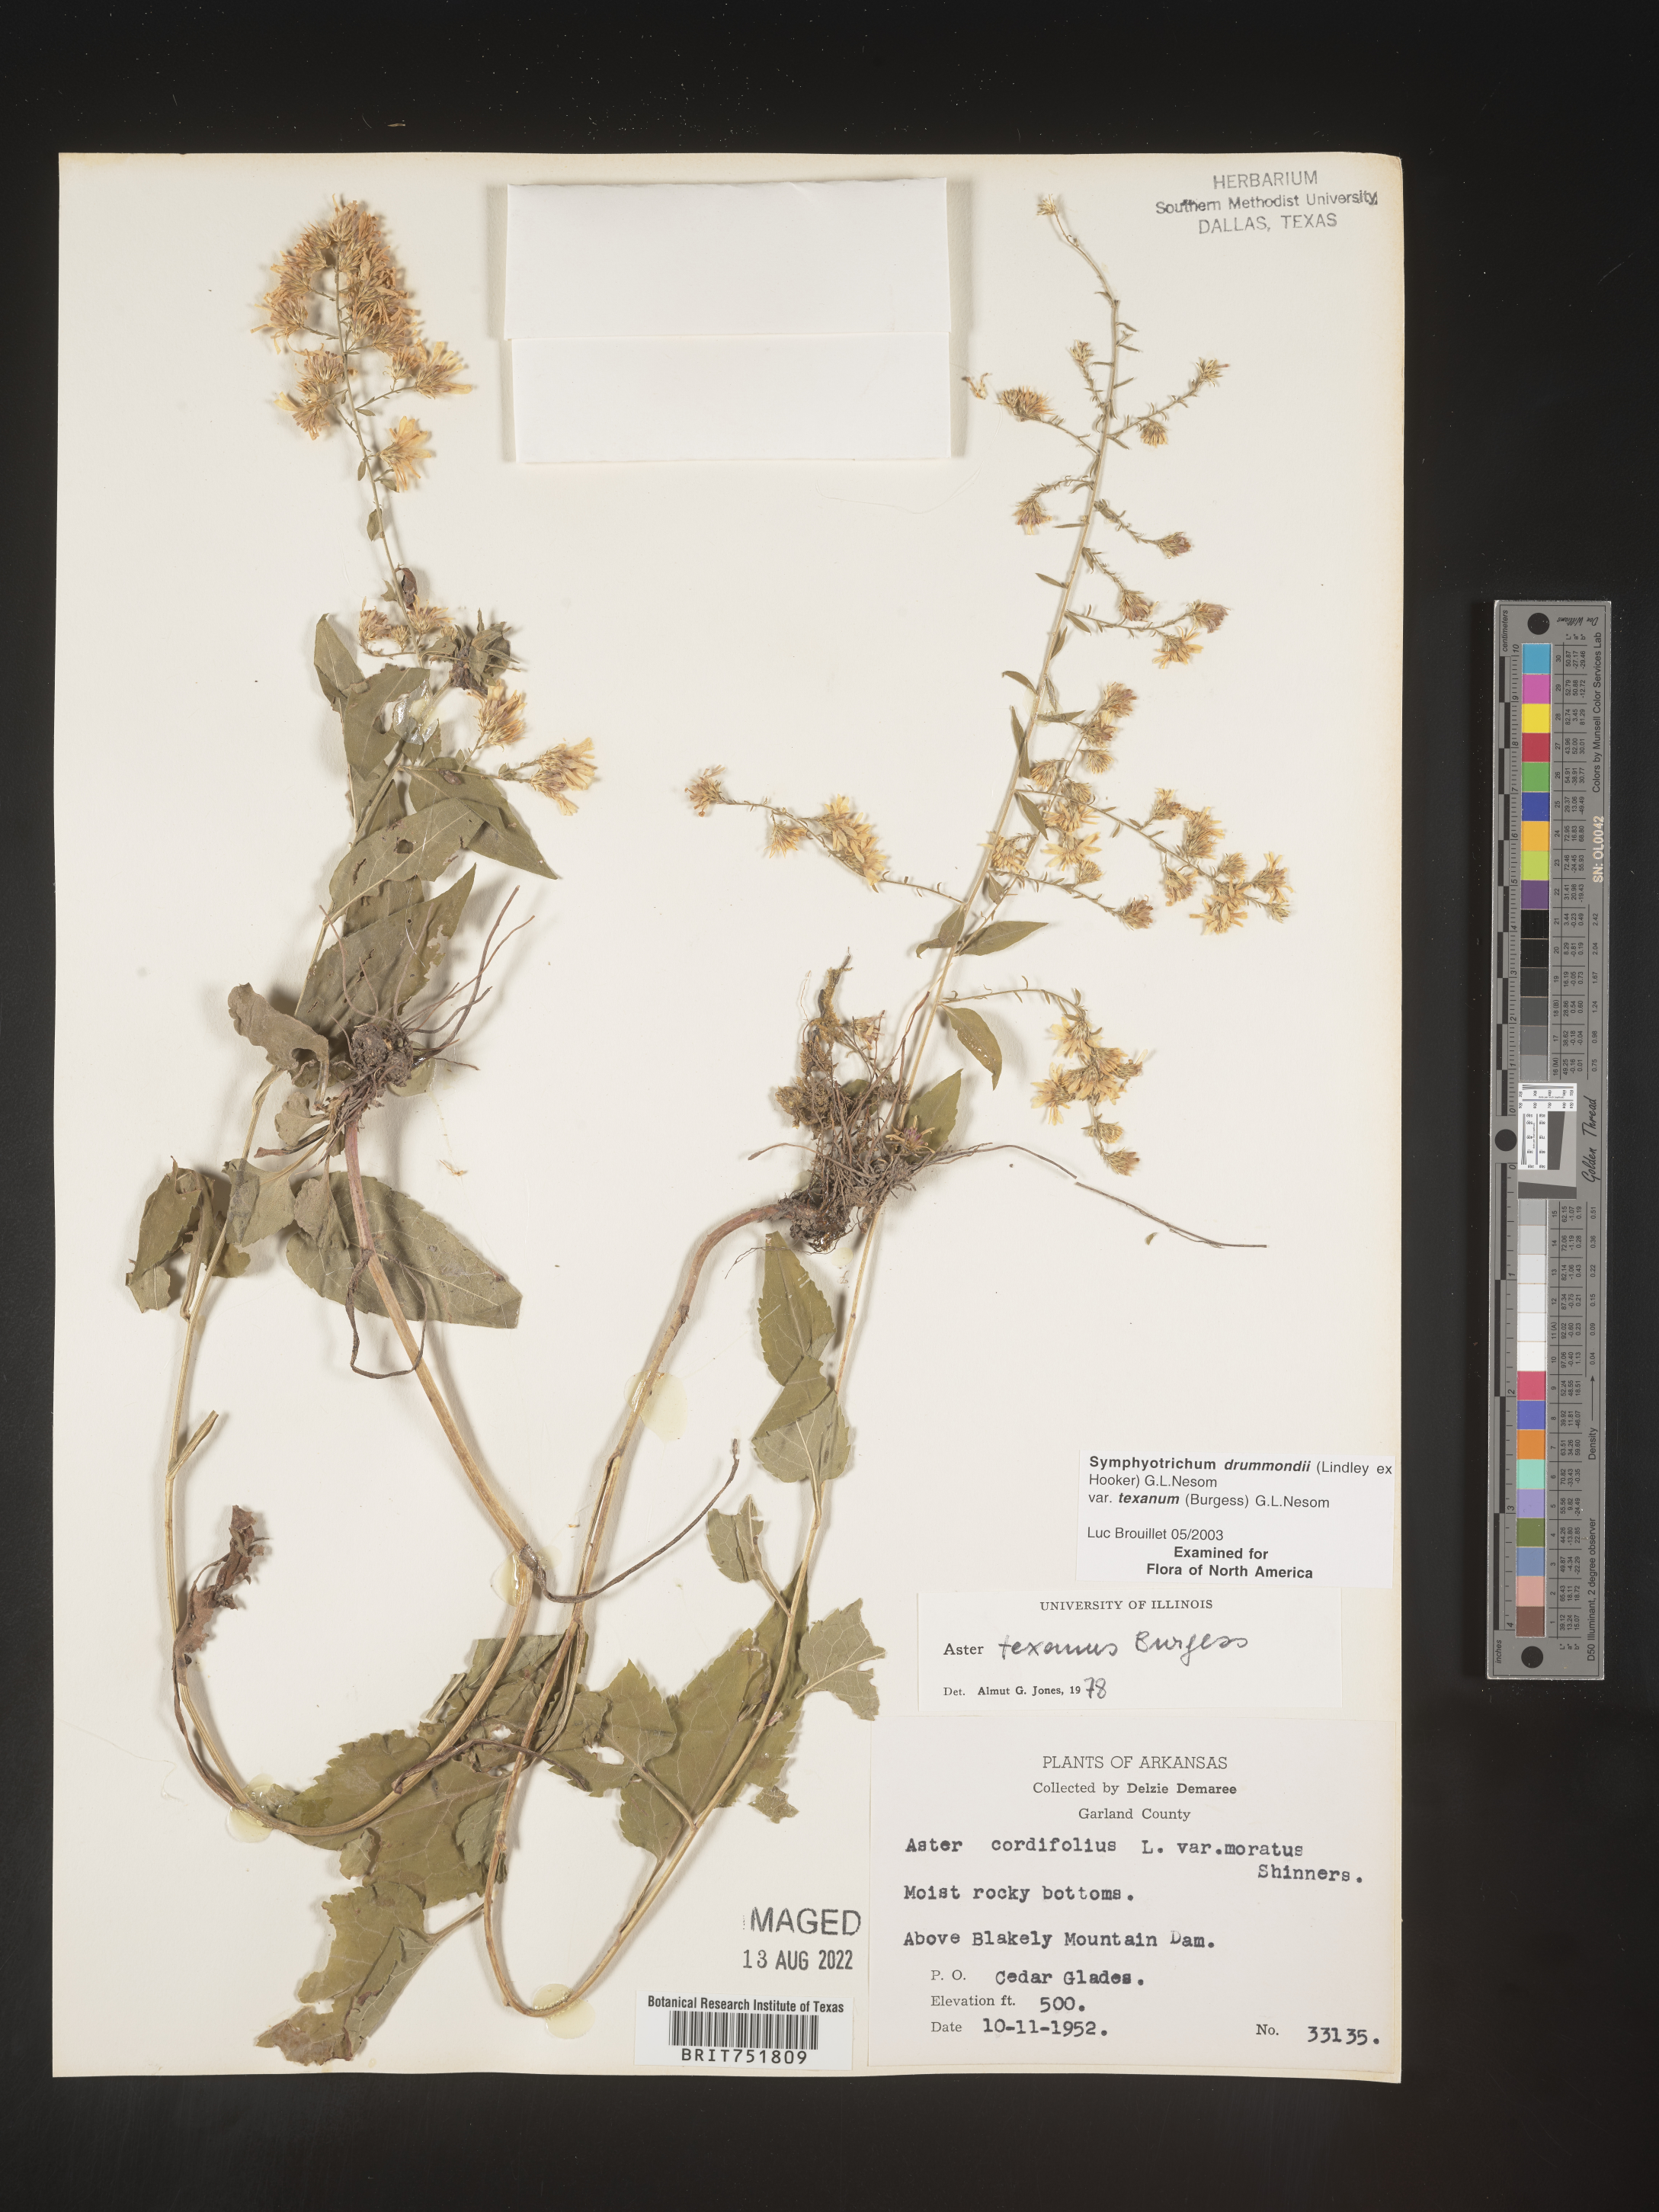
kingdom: Plantae
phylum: Tracheophyta
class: Magnoliopsida
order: Asterales
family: Asteraceae
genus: Symphyotrichum
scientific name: Symphyotrichum drummondii
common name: Drummond's aster
